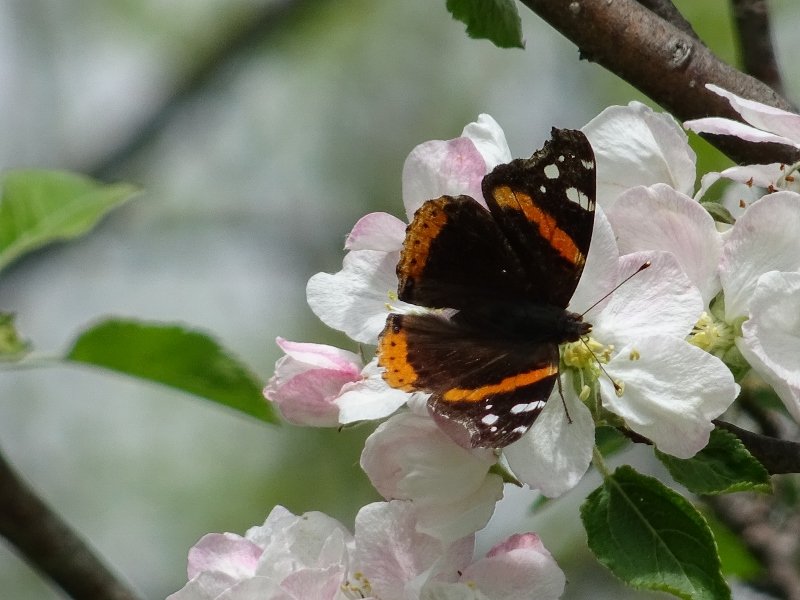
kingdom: Animalia
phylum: Arthropoda
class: Insecta
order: Lepidoptera
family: Nymphalidae
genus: Vanessa
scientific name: Vanessa atalanta
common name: Red Admiral
